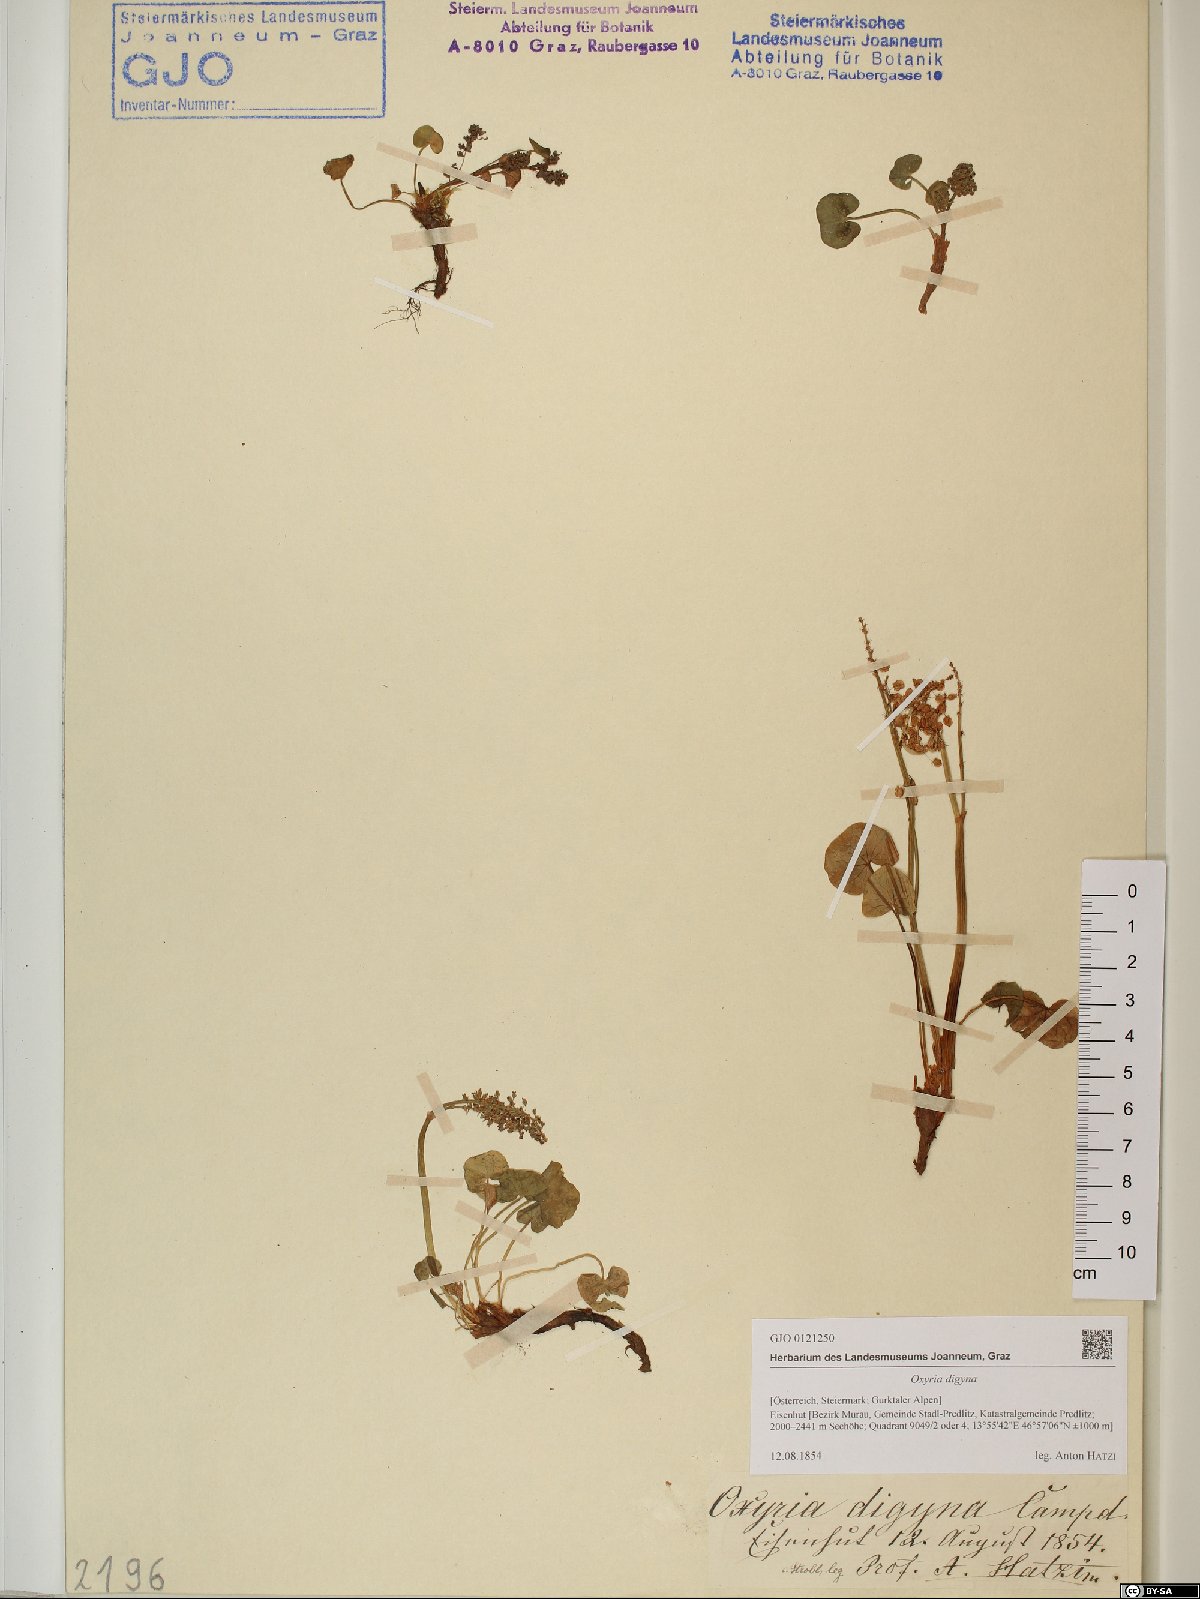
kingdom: Plantae
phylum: Tracheophyta
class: Magnoliopsida
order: Caryophyllales
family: Polygonaceae
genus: Oxyria
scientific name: Oxyria digyna
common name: Alpine mountain-sorrel
